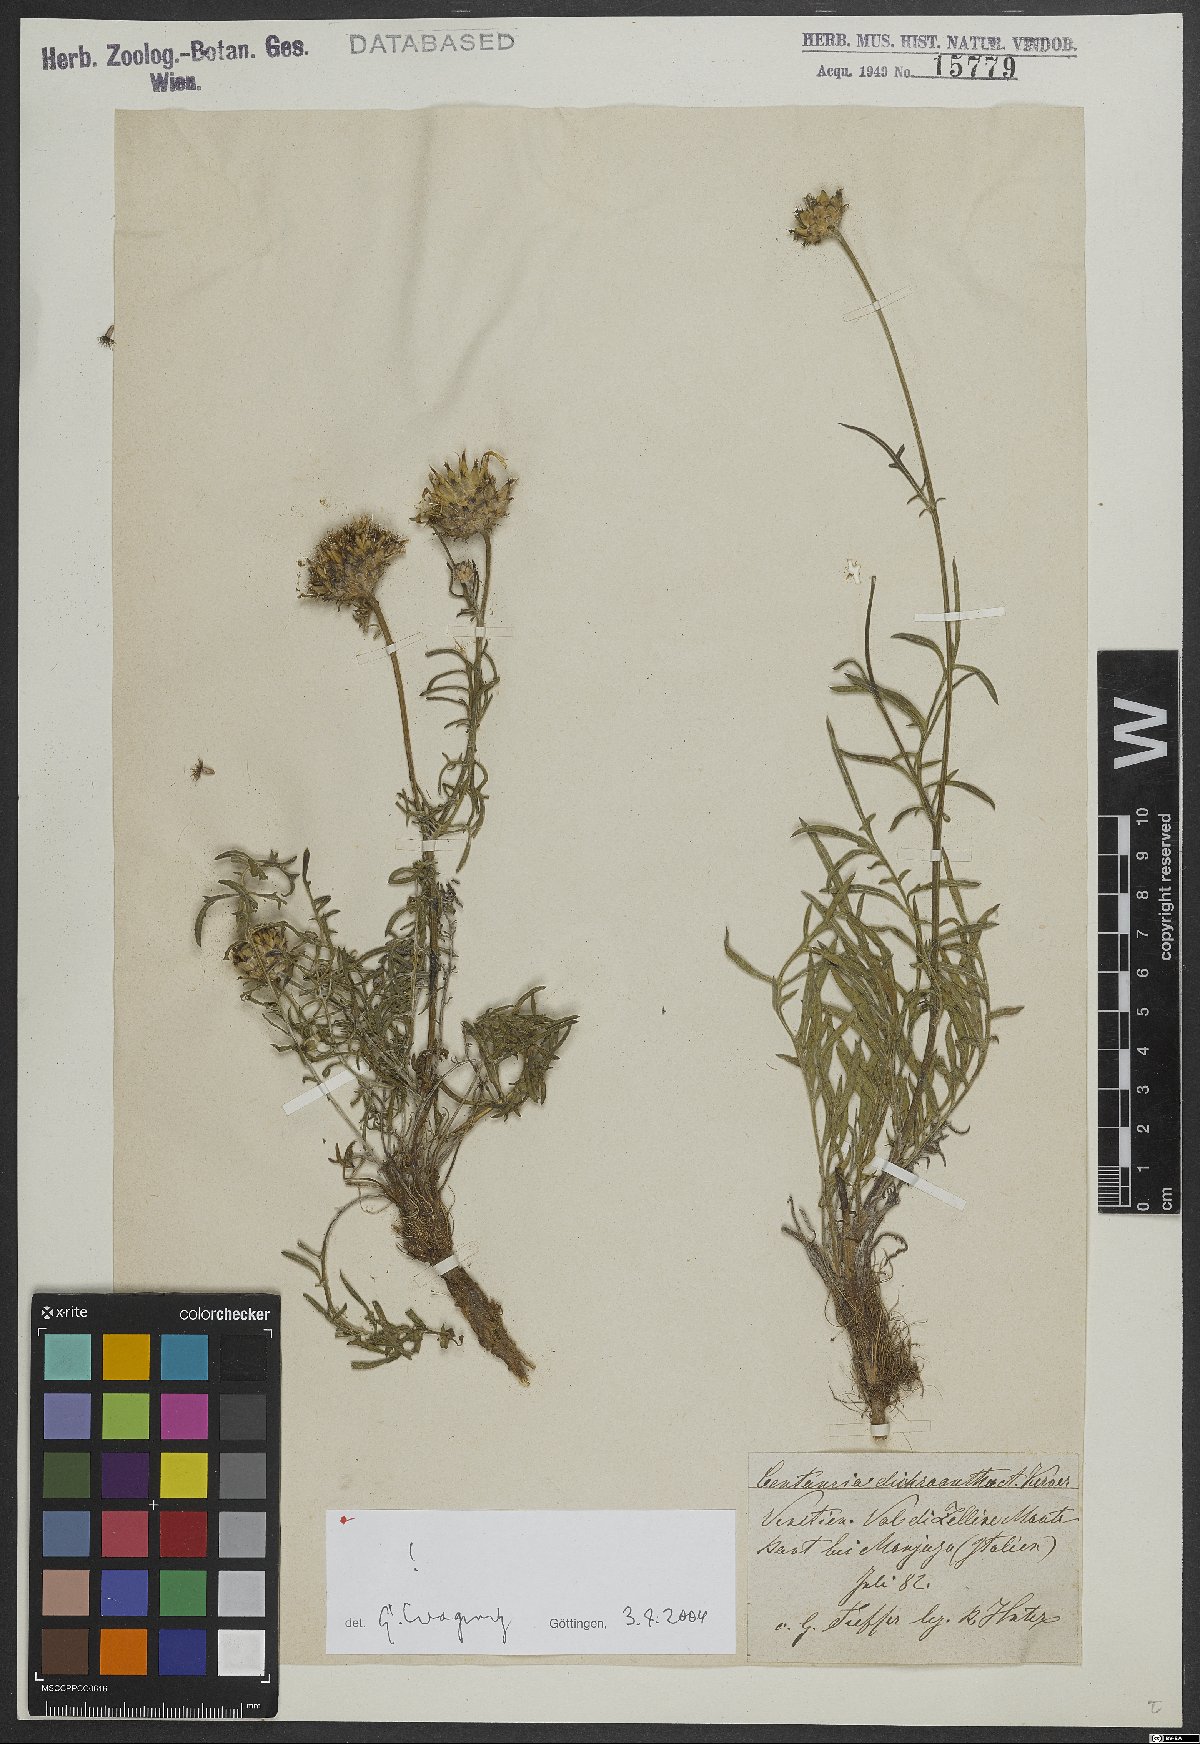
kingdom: Plantae
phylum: Tracheophyta
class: Magnoliopsida
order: Asterales
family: Asteraceae
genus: Centaurea
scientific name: Centaurea dichroantha
